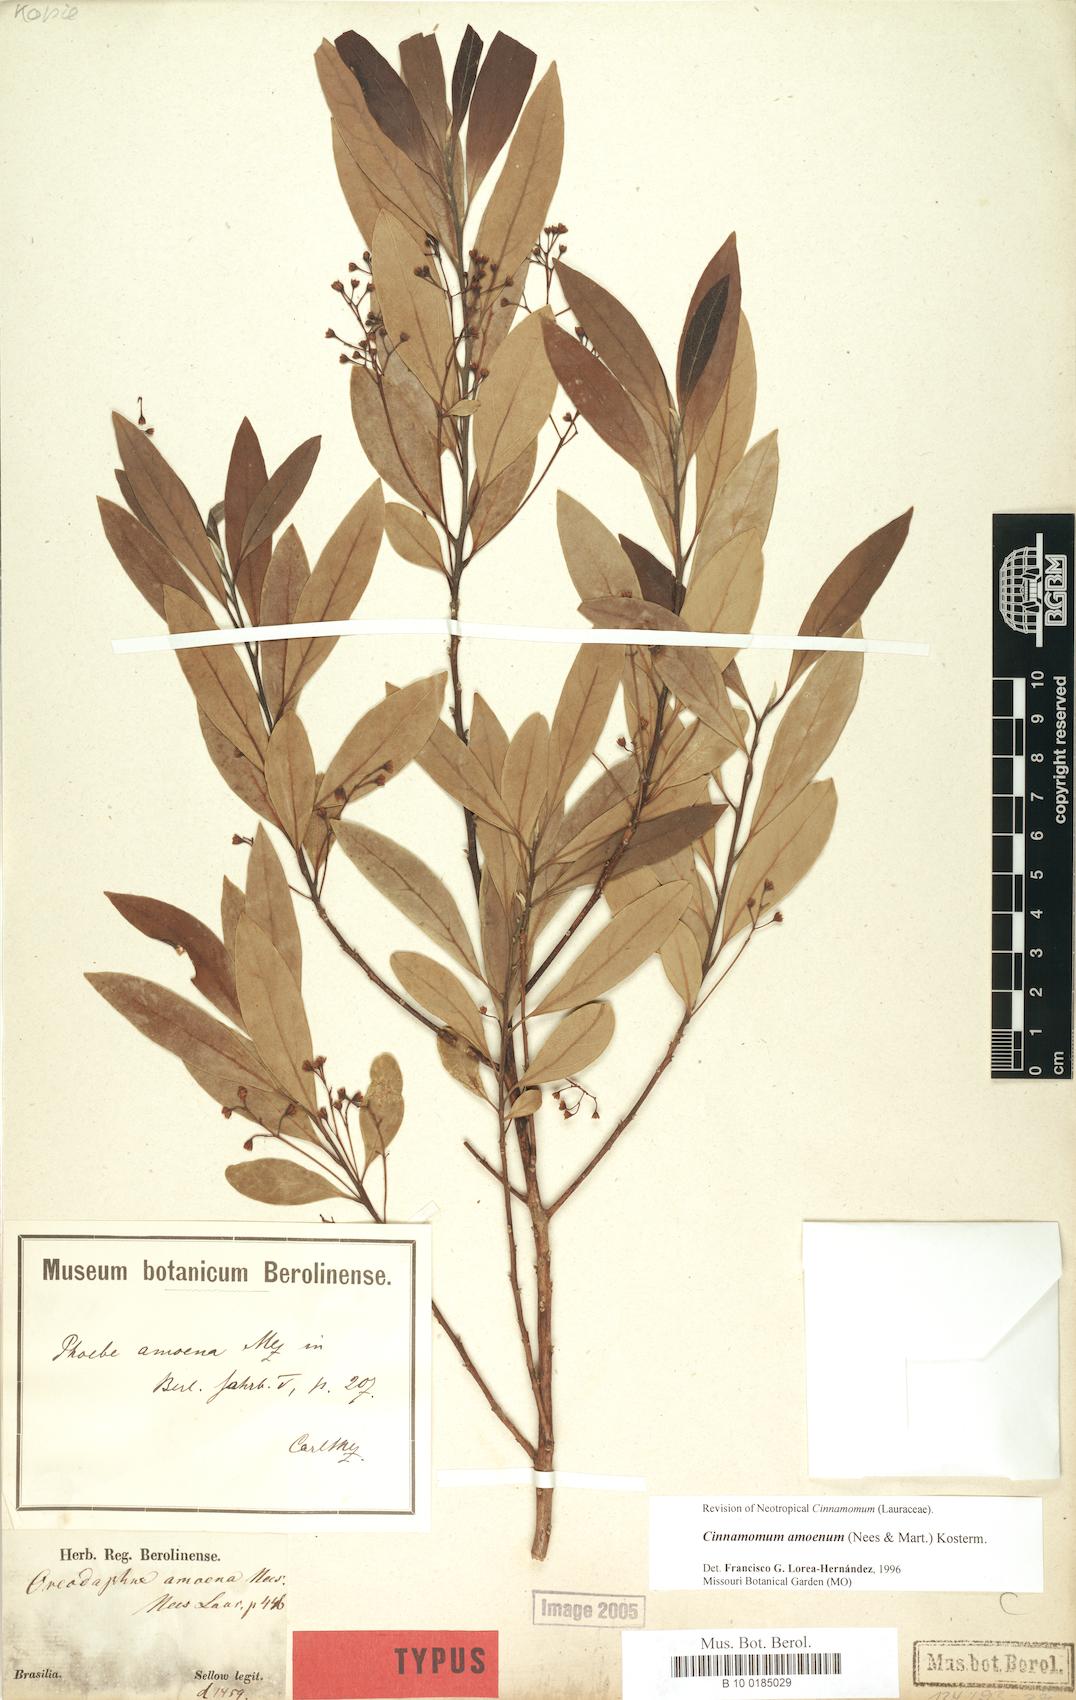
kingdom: Plantae
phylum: Tracheophyta
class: Magnoliopsida
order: Laurales
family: Lauraceae
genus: Aiouea
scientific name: Aiouea amoena
